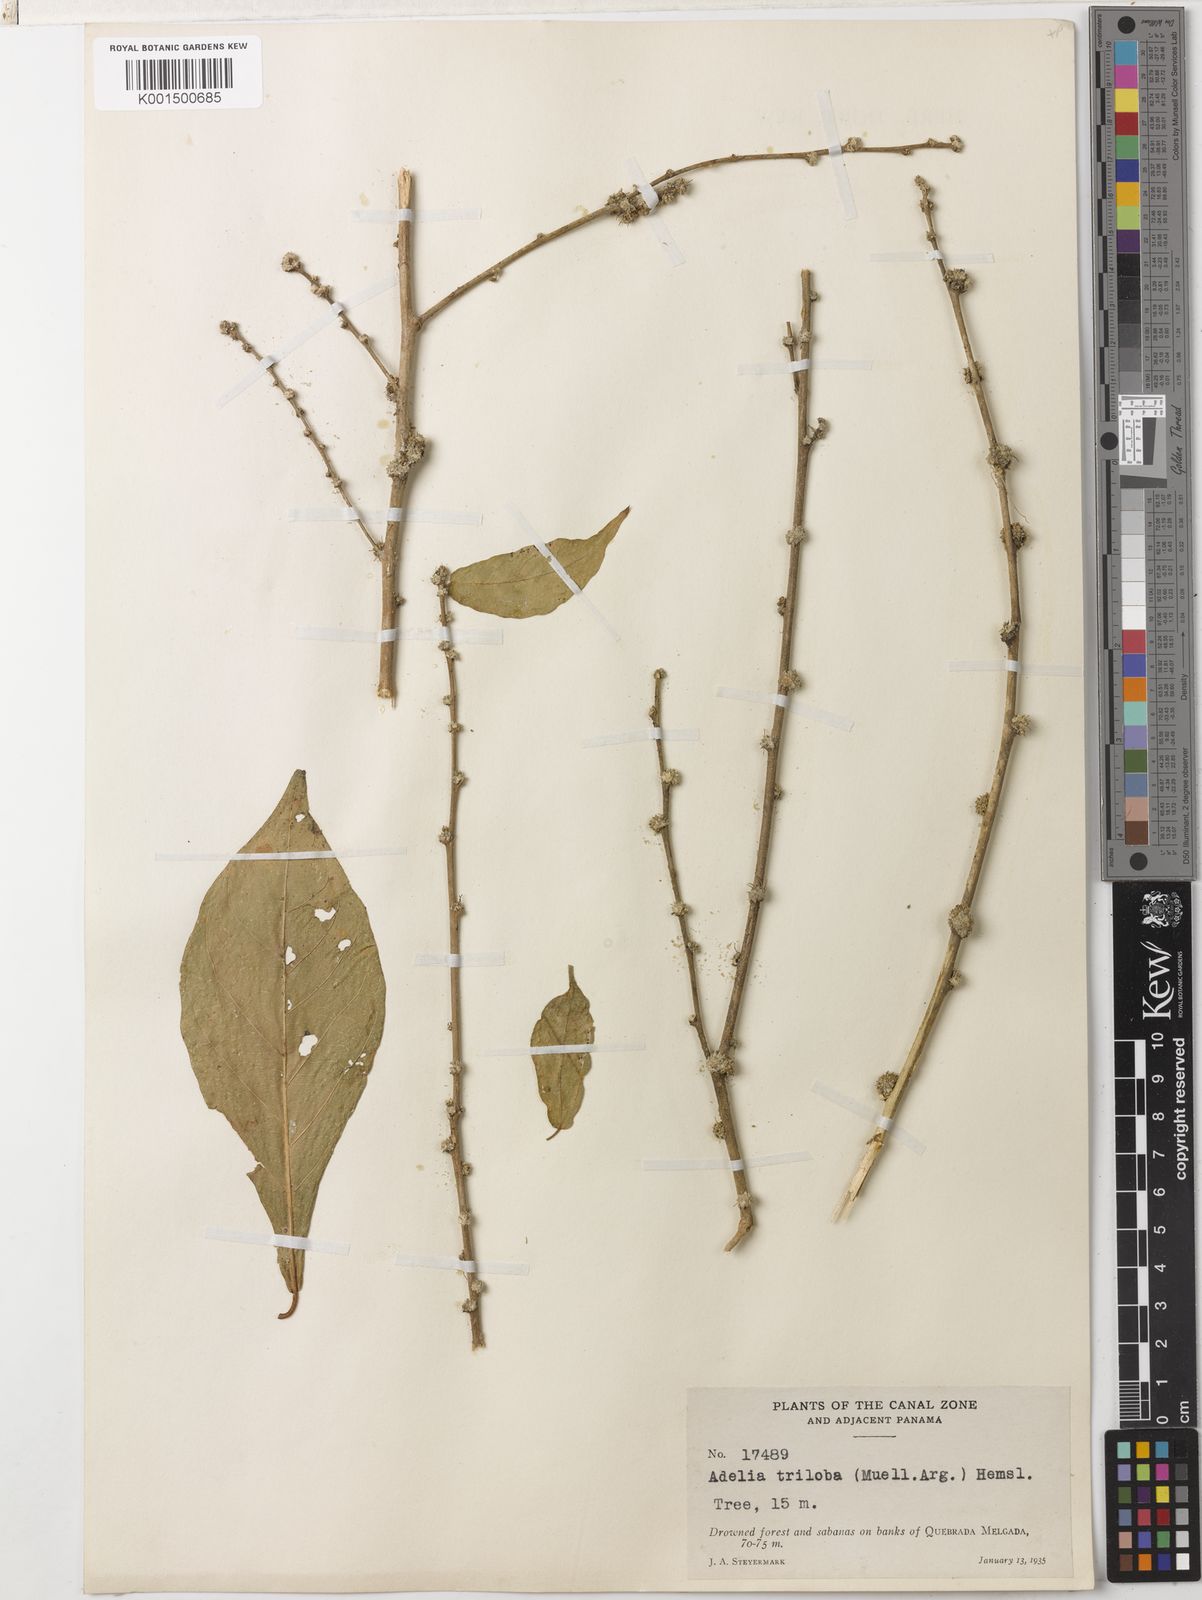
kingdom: Plantae
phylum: Tracheophyta
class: Magnoliopsida
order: Malpighiales
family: Euphorbiaceae
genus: Adelia
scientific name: Adelia triloba
